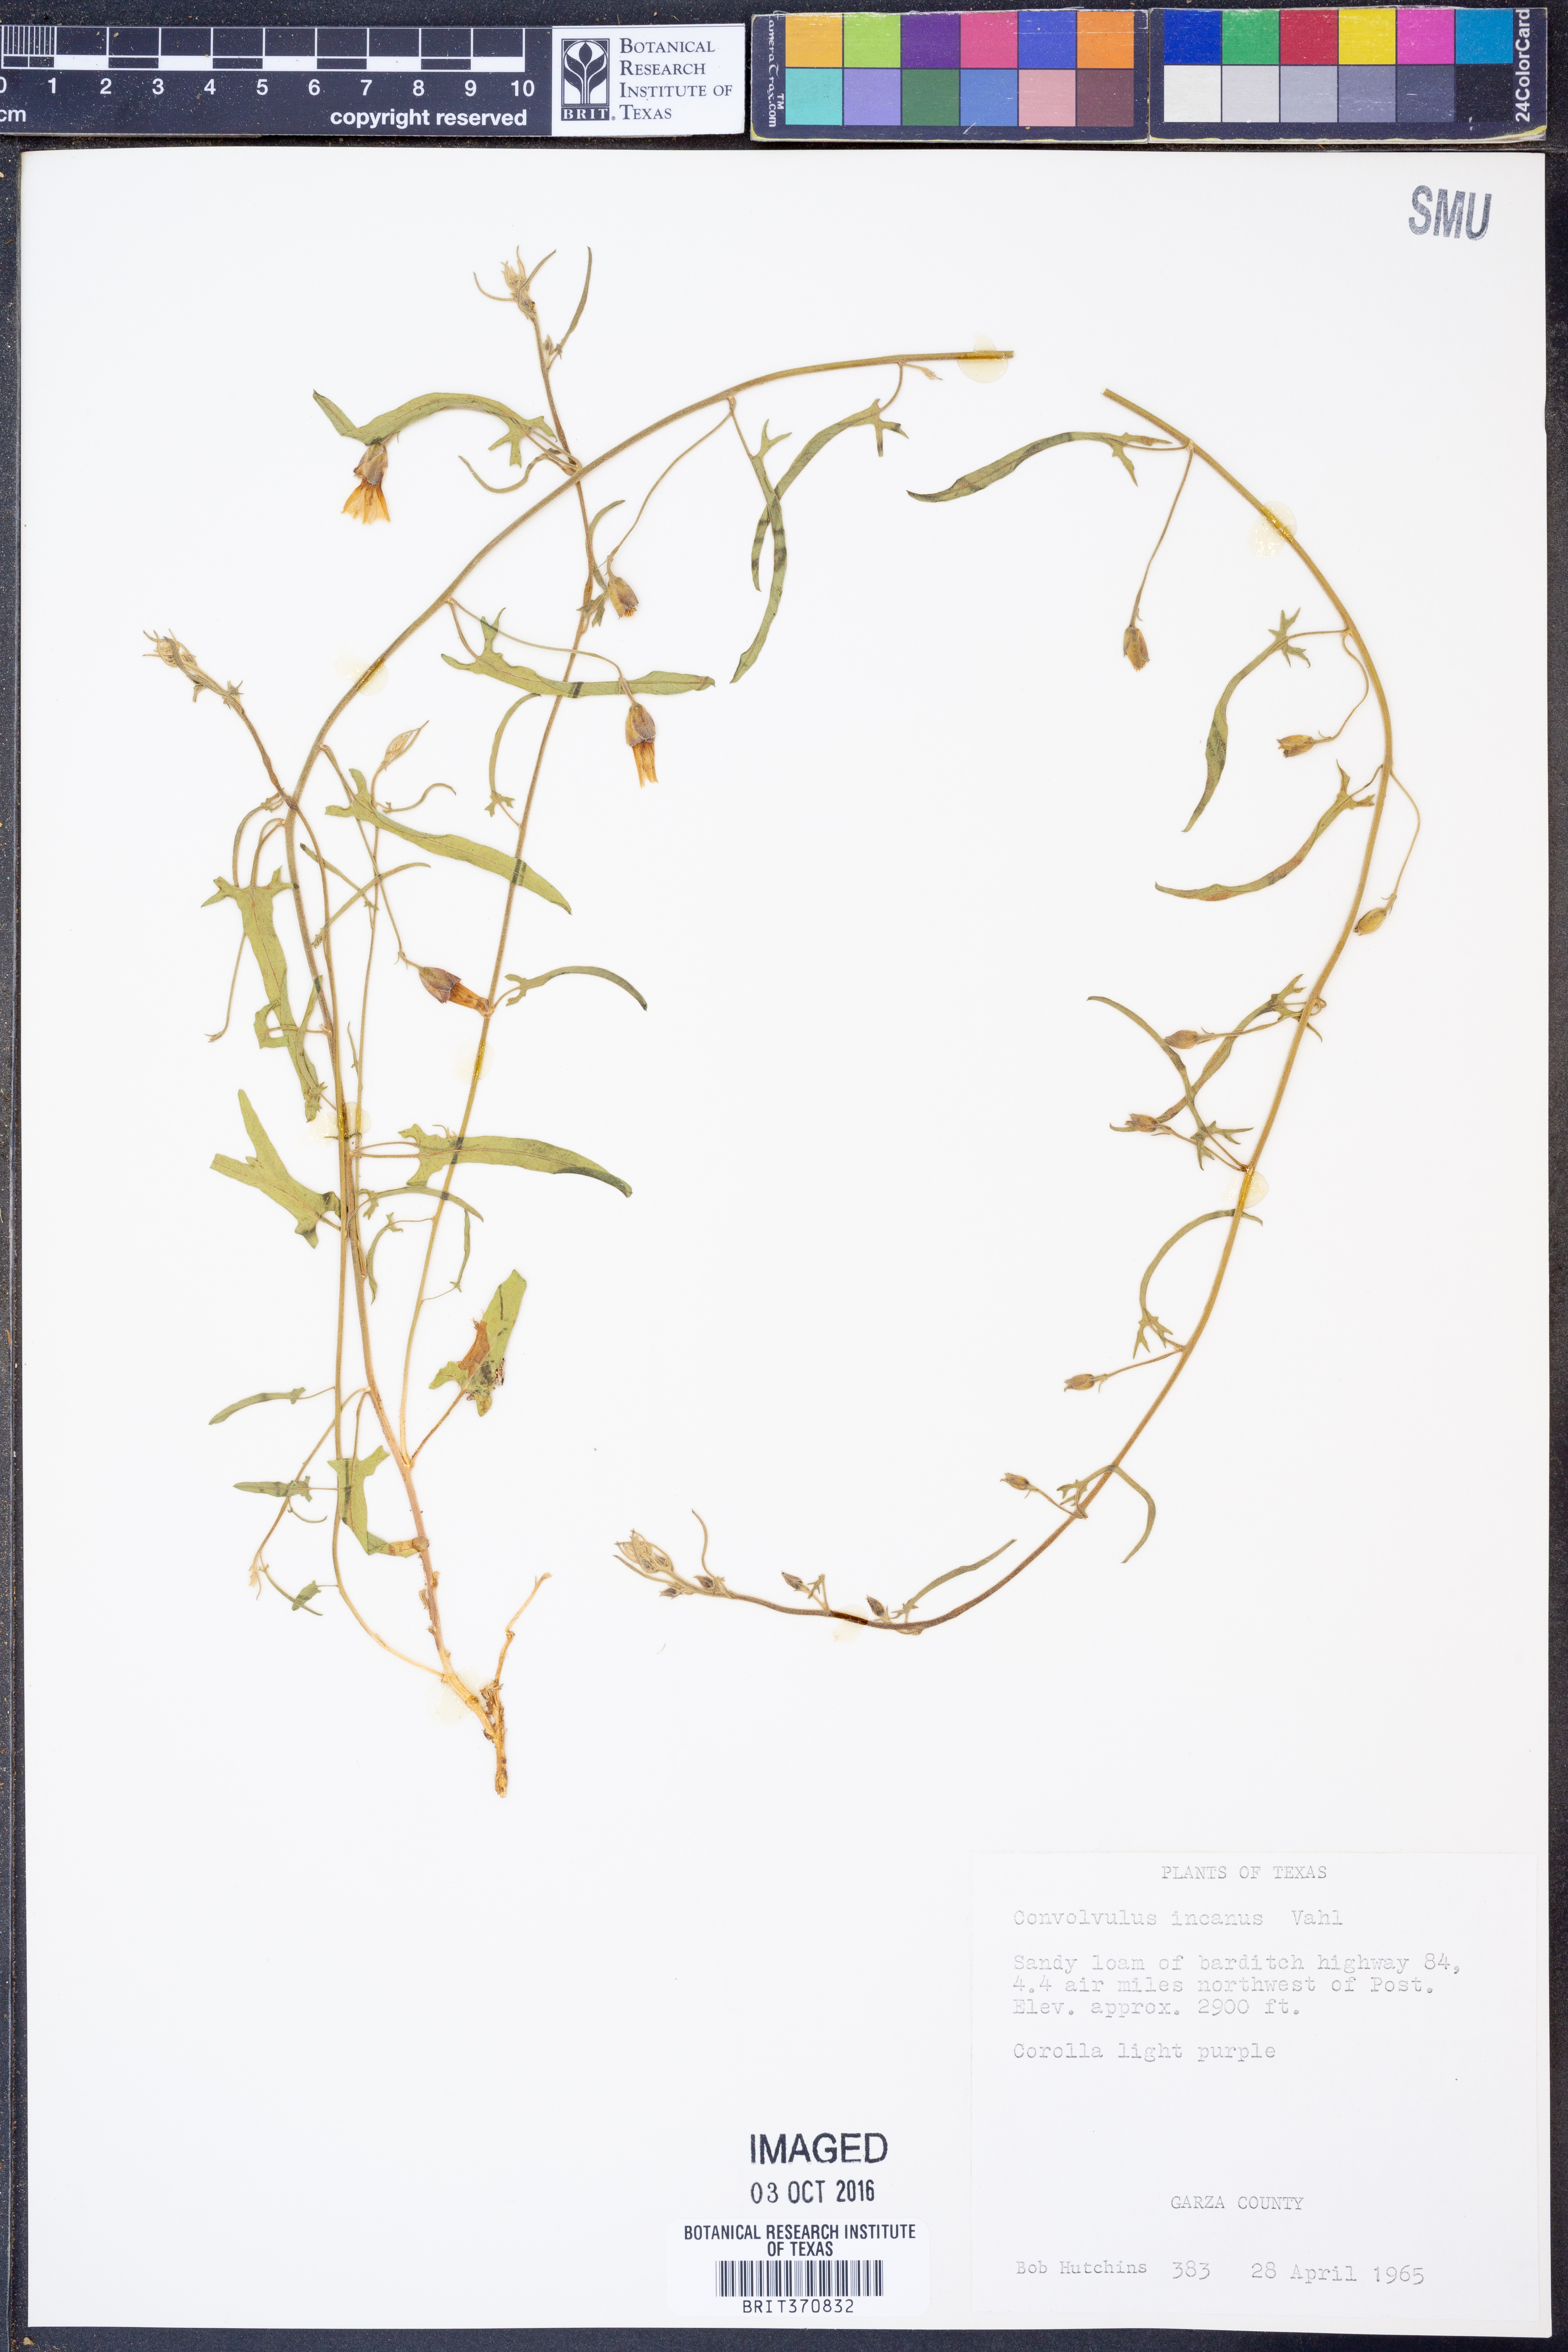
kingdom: Plantae
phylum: Tracheophyta
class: Magnoliopsida
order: Solanales
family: Convolvulaceae
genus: Convolvulus
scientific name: Convolvulus hermanniae
